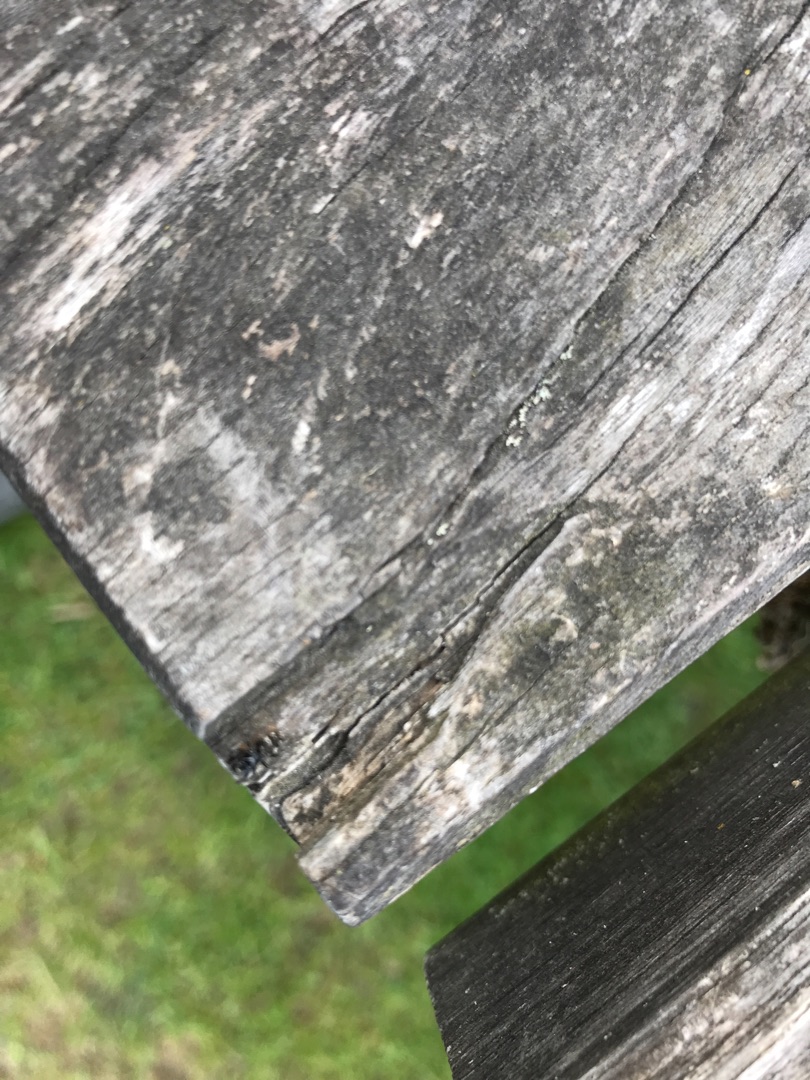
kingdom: Animalia
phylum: Arthropoda
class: Arachnida
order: Araneae
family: Salticidae
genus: Salticus
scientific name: Salticus scenicus
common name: Almindelig zebraedderkop
